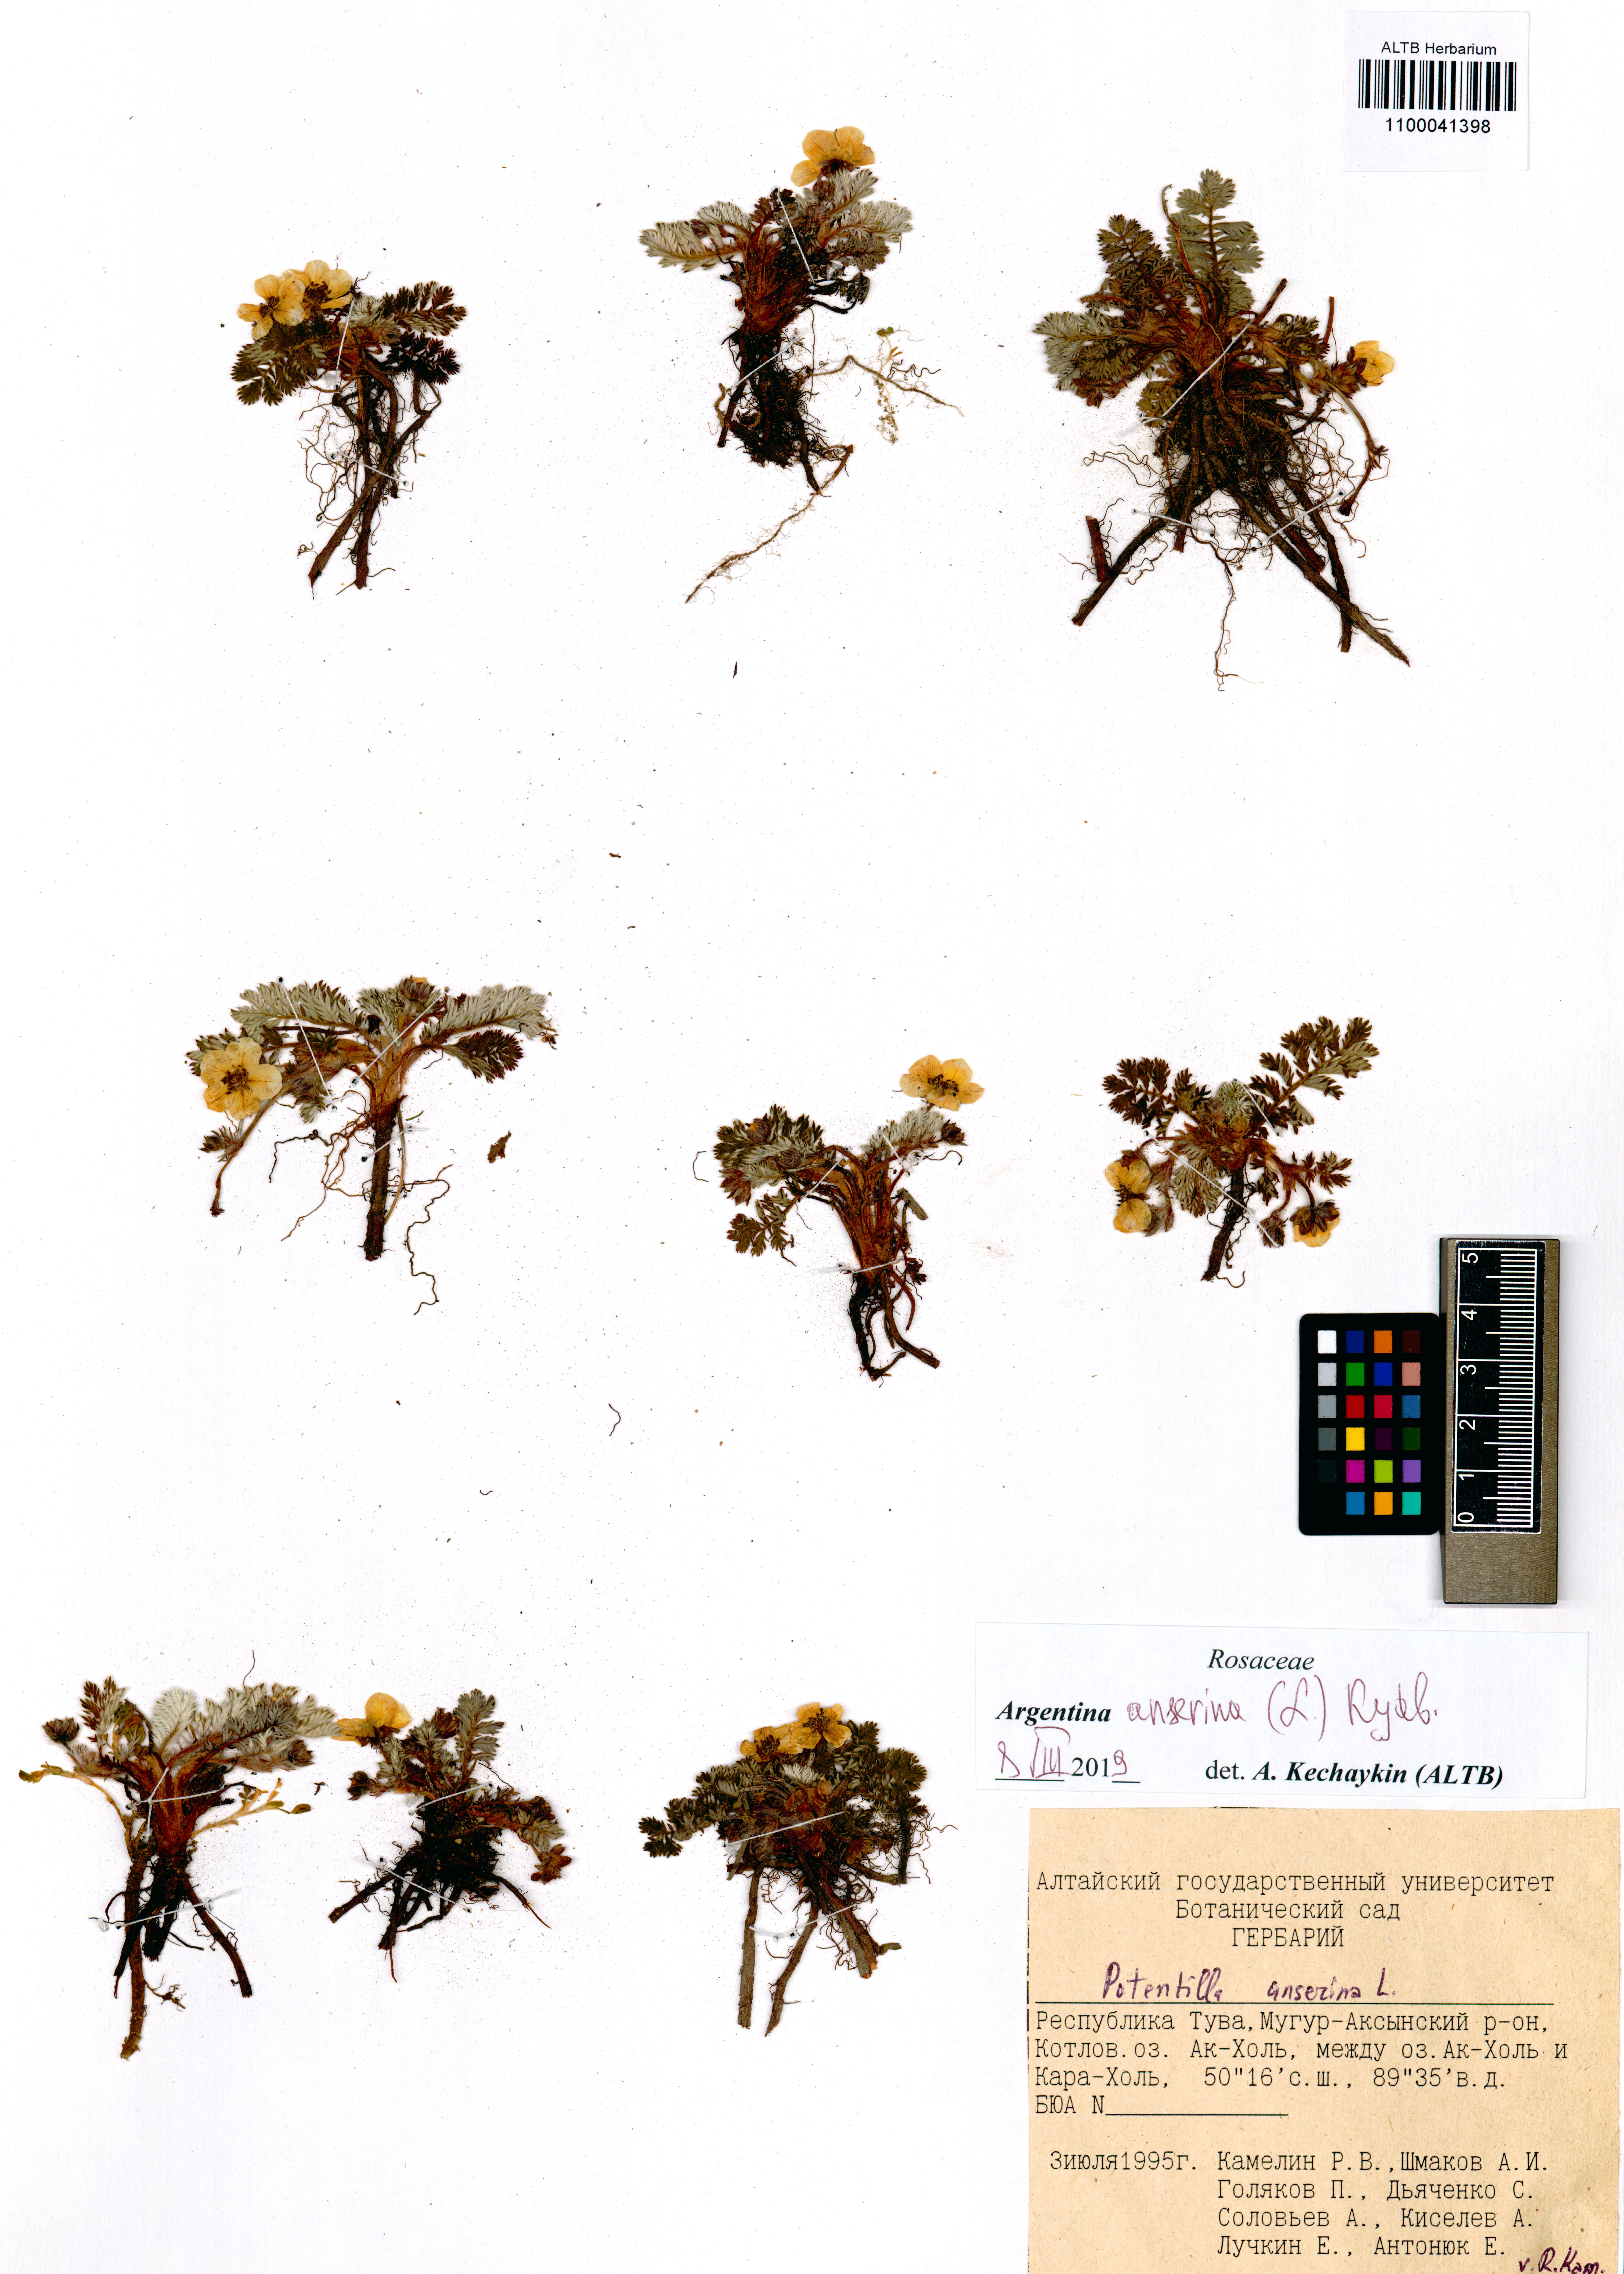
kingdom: Plantae
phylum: Tracheophyta
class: Magnoliopsida
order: Rosales
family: Rosaceae
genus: Argentina
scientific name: Argentina anserina
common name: Common silverweed
